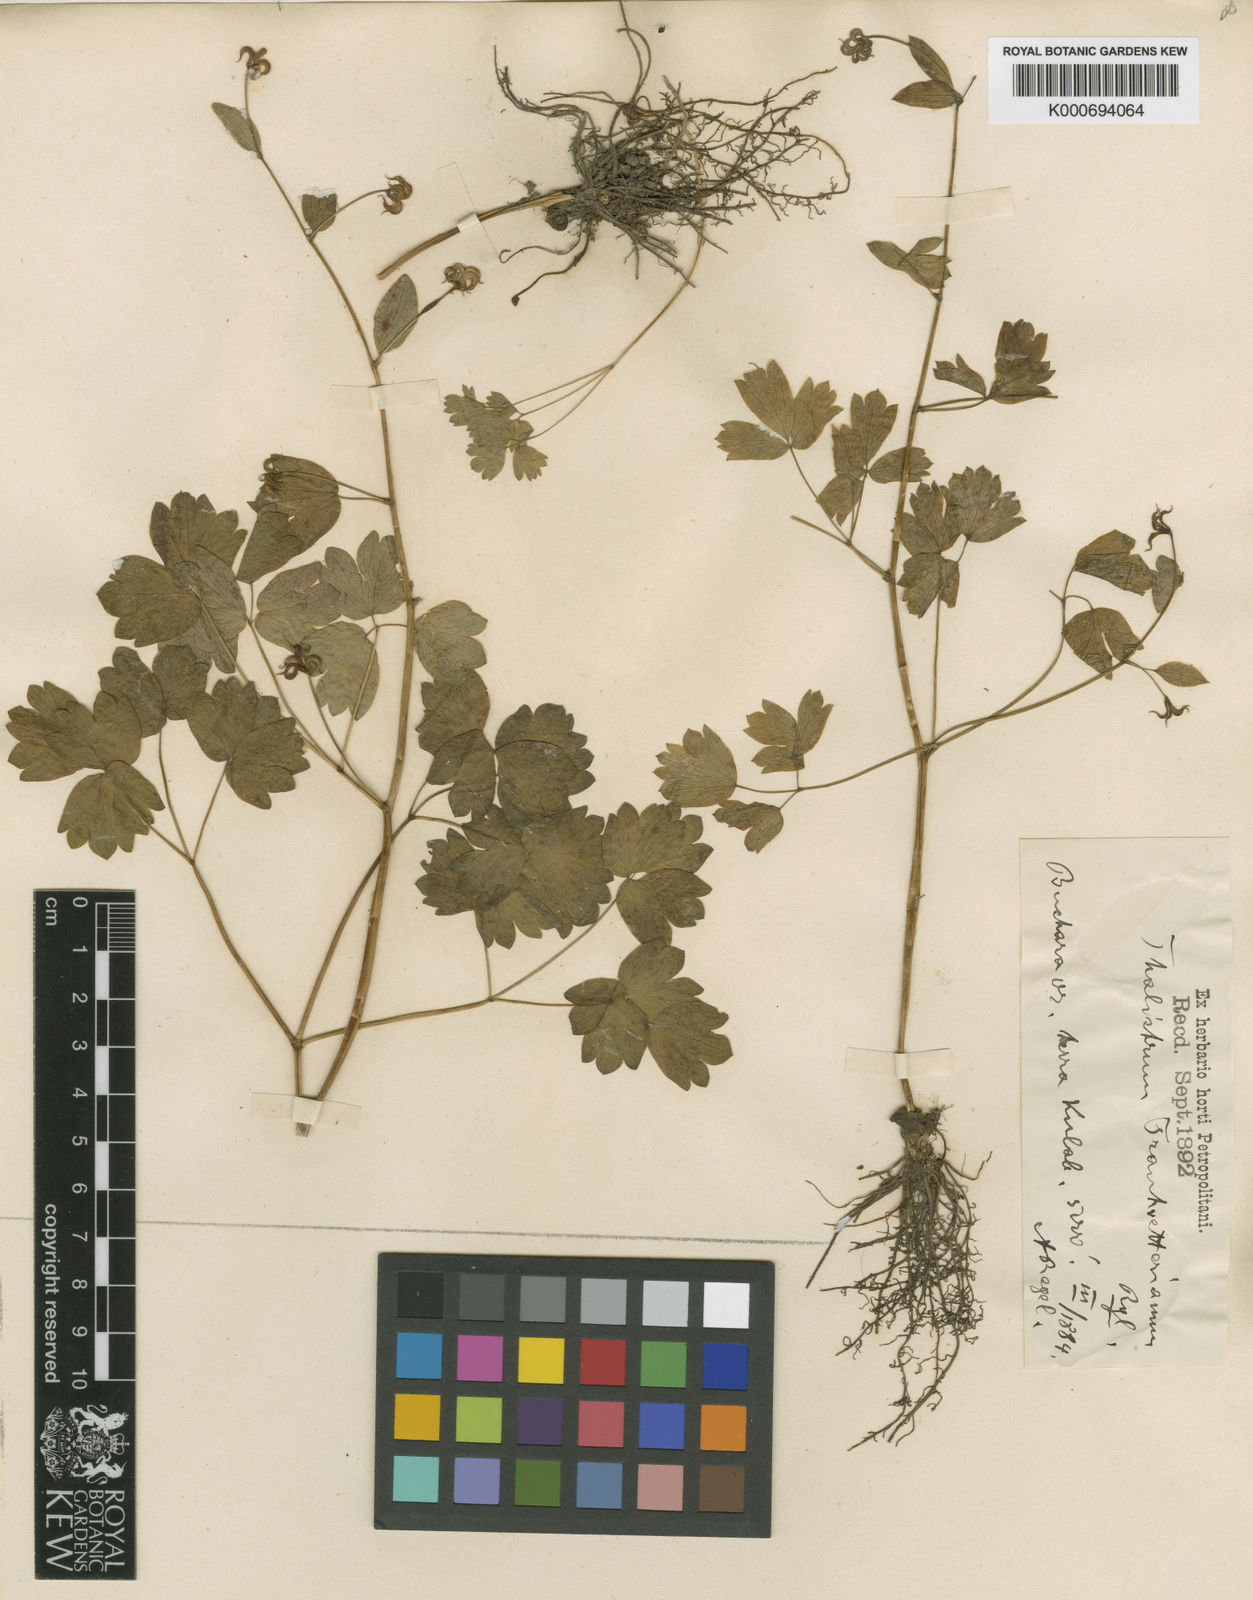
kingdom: Plantae
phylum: Tracheophyta
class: Magnoliopsida
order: Ranunculales
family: Ranunculaceae
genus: Thalictrum
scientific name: Thalictrum trautvetterianum
